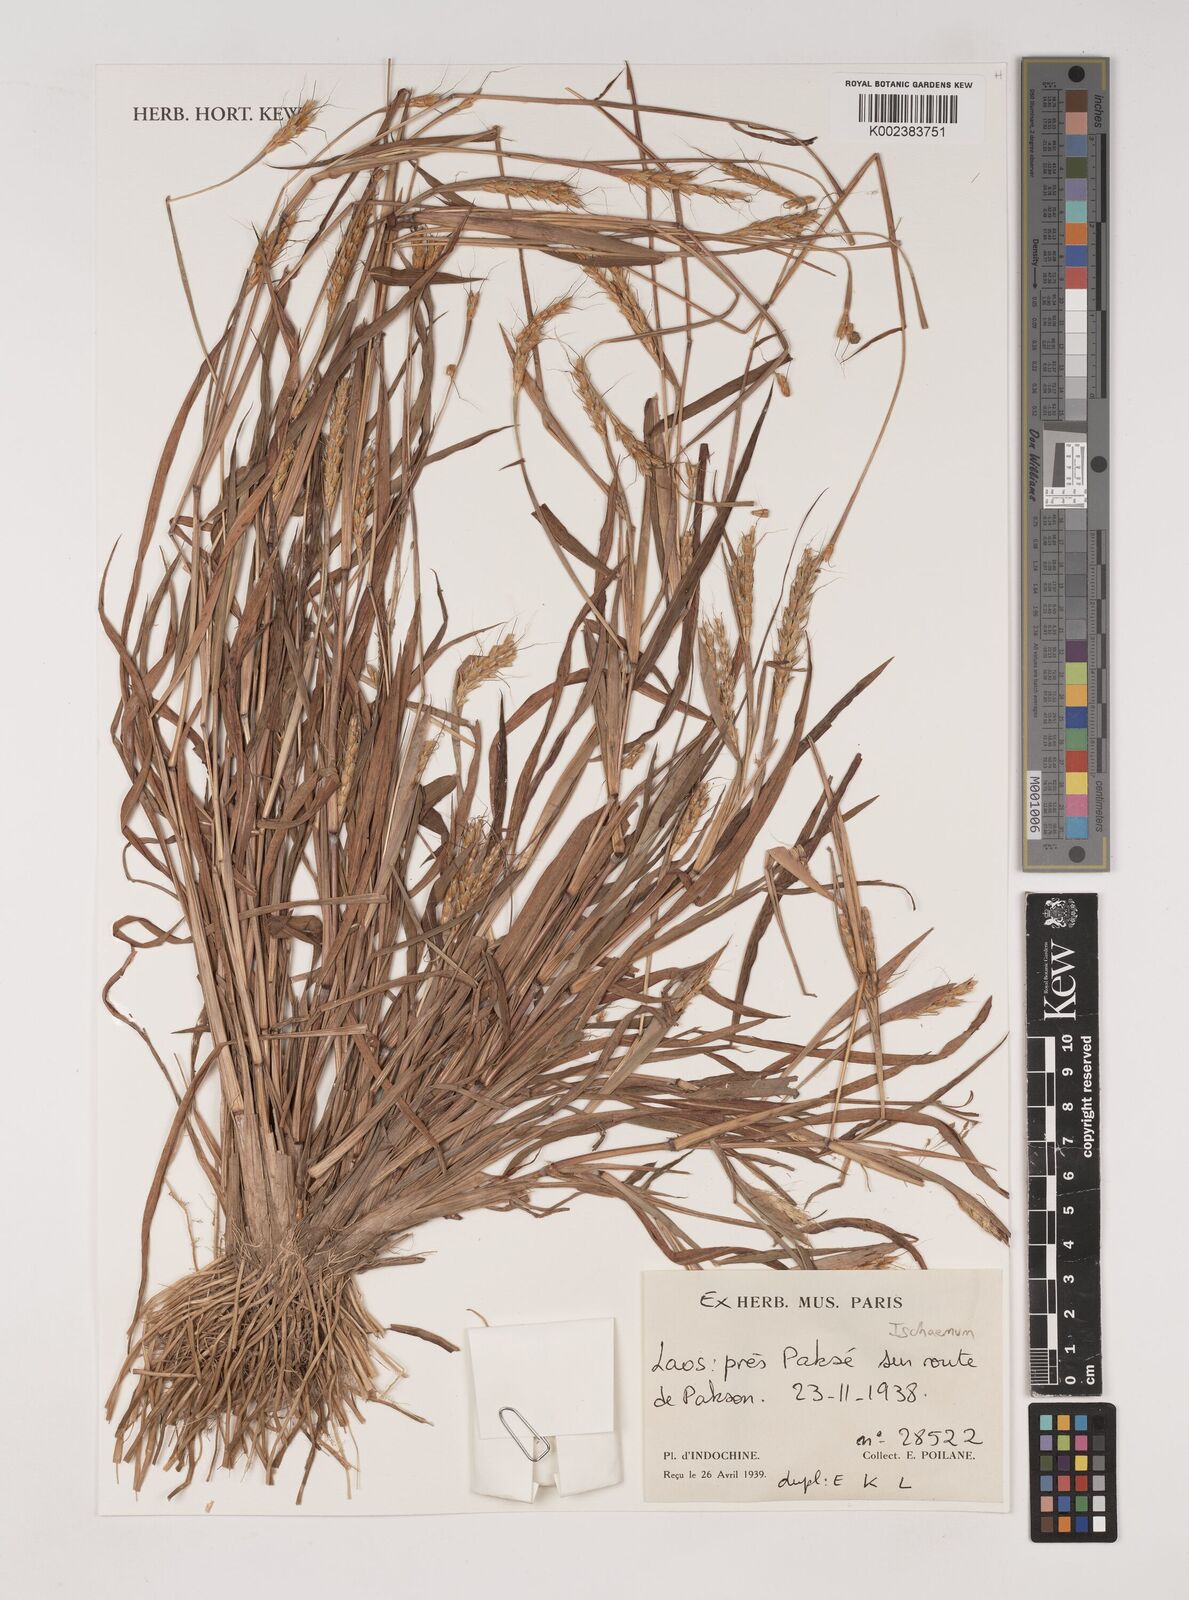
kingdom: Plantae
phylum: Tracheophyta
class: Liliopsida
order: Poales
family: Poaceae
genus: Ischaemum
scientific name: Ischaemum
